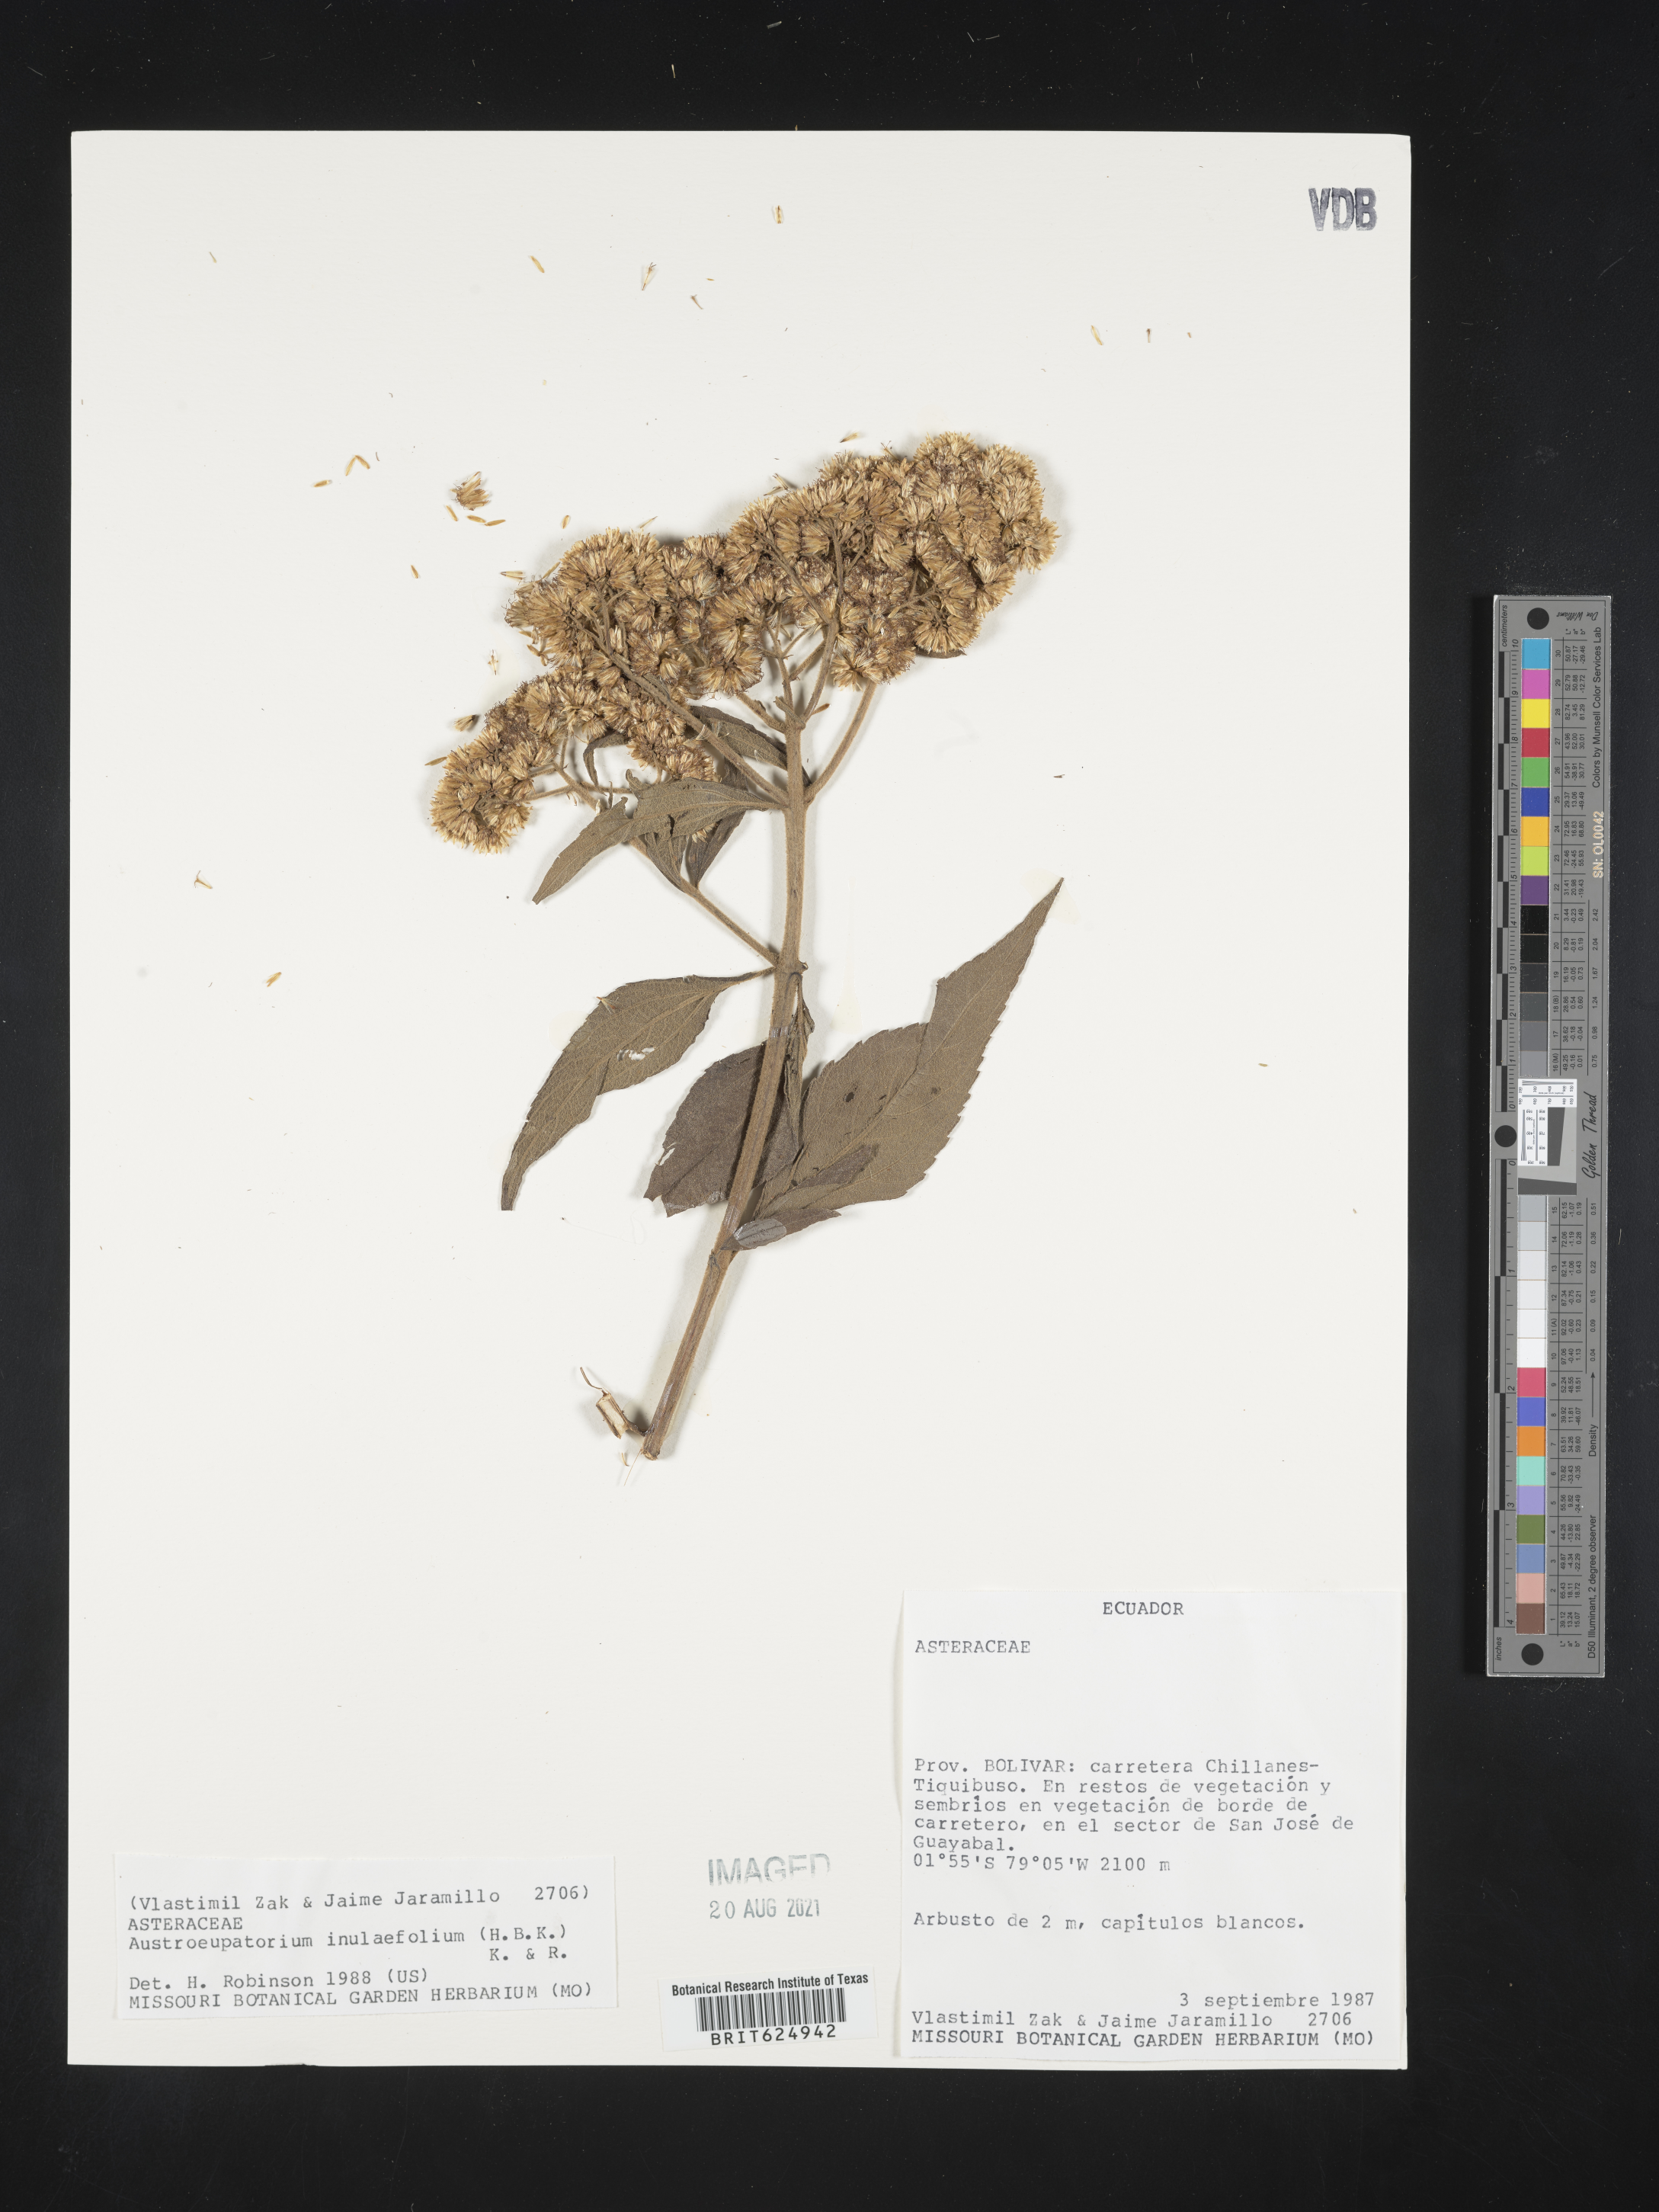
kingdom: Plantae
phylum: Tracheophyta
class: Magnoliopsida
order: Asterales
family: Asteraceae
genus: Austroeupatorium
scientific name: Austroeupatorium inulaefolium
